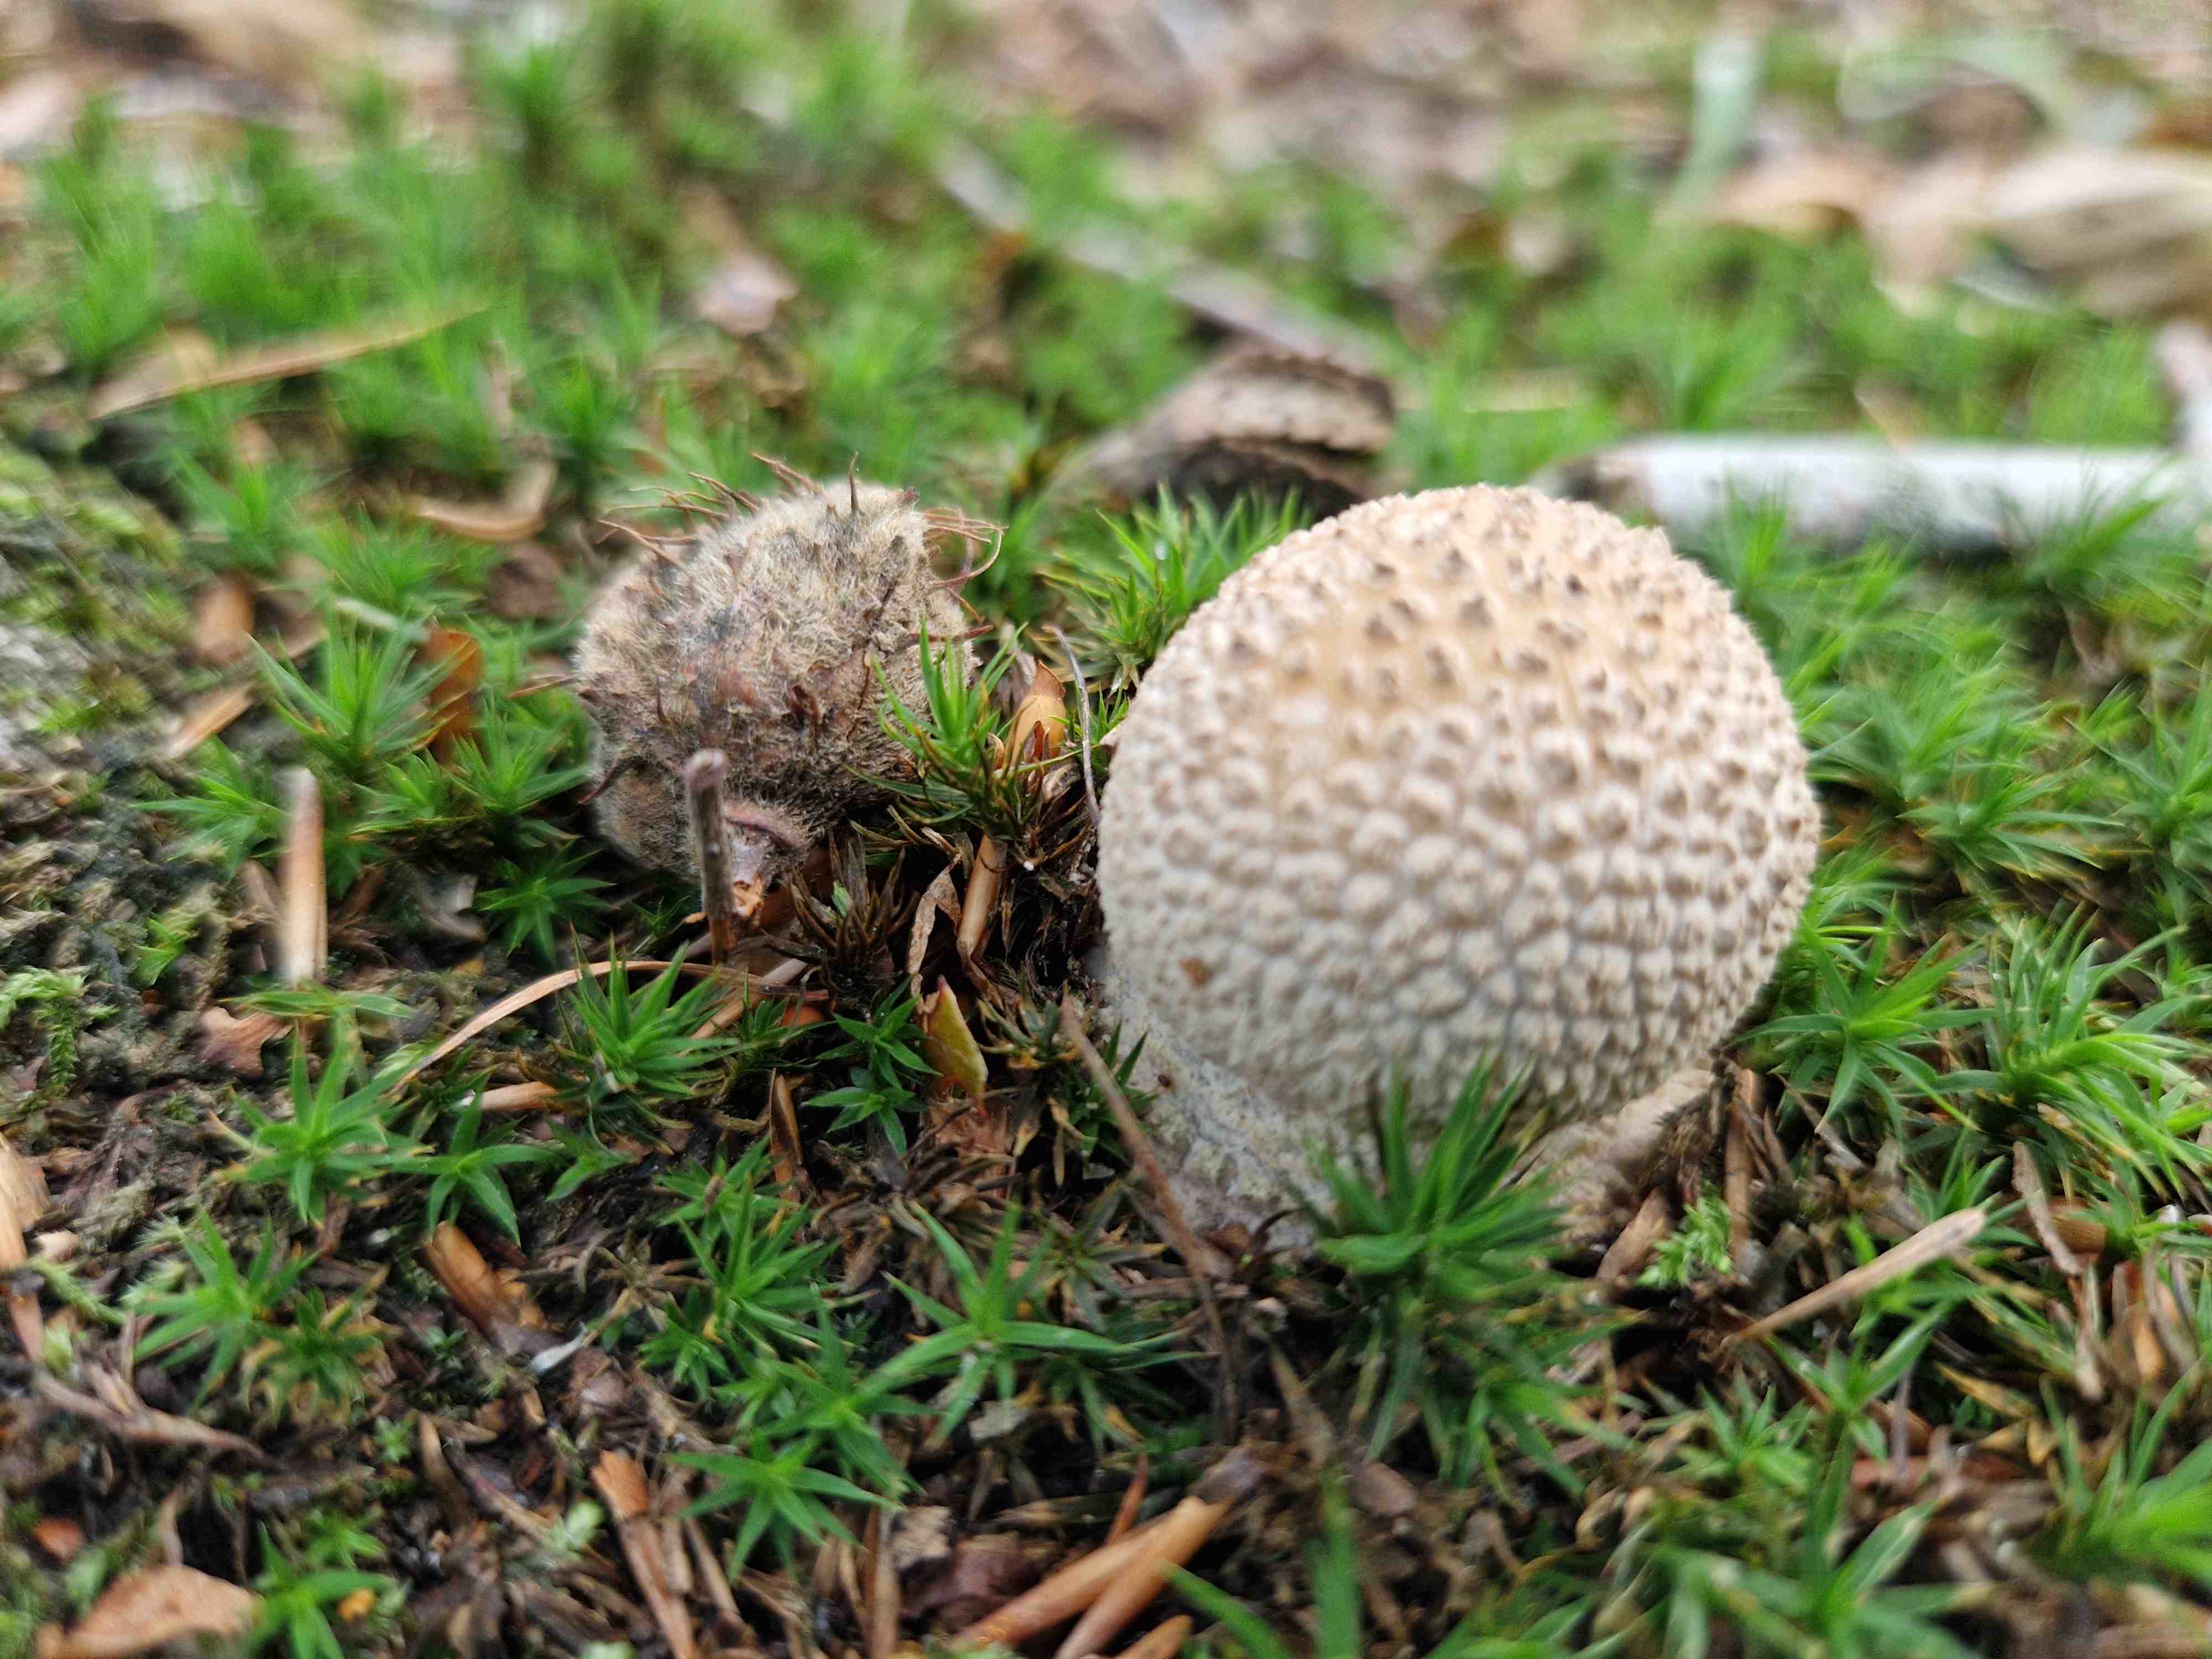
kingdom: Fungi
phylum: Basidiomycota
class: Agaricomycetes
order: Agaricales
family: Amanitaceae
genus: Amanita
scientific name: Amanita rubescens
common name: rødmende fluesvamp
